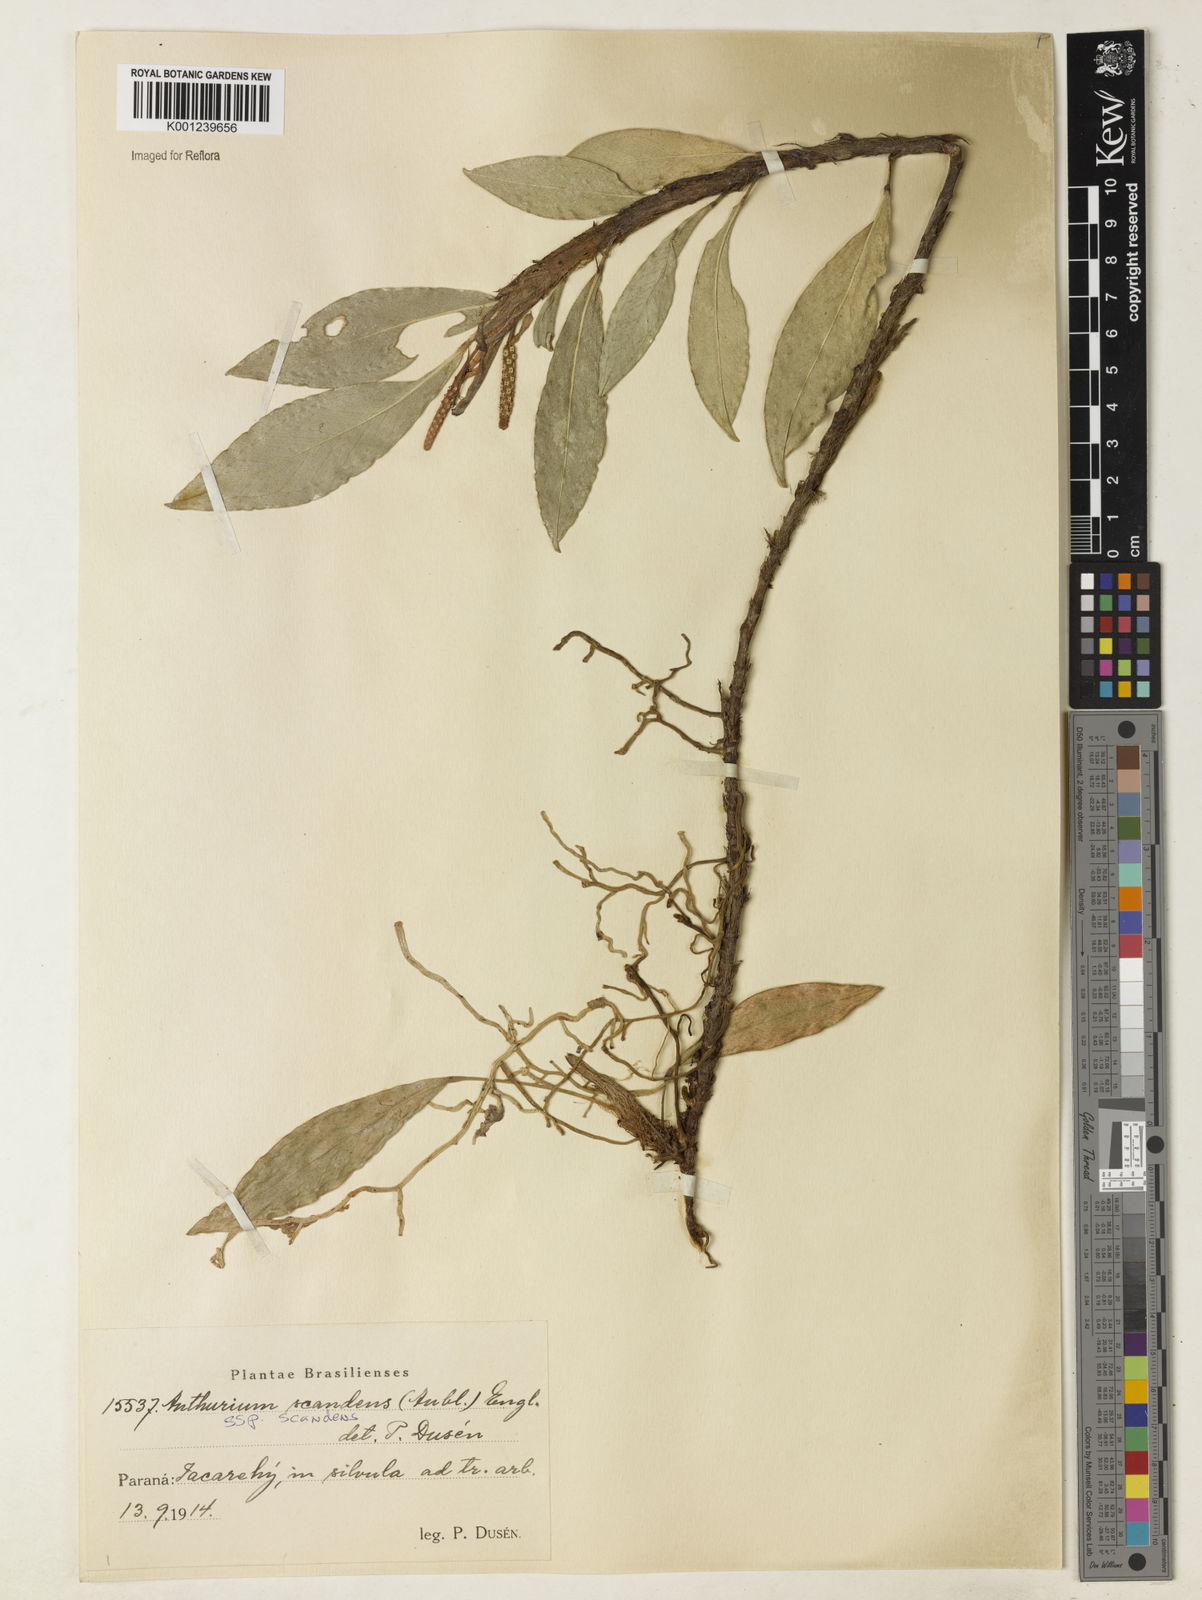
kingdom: Plantae
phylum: Tracheophyta
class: Liliopsida
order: Alismatales
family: Araceae
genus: Anthurium
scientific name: Anthurium scandens
